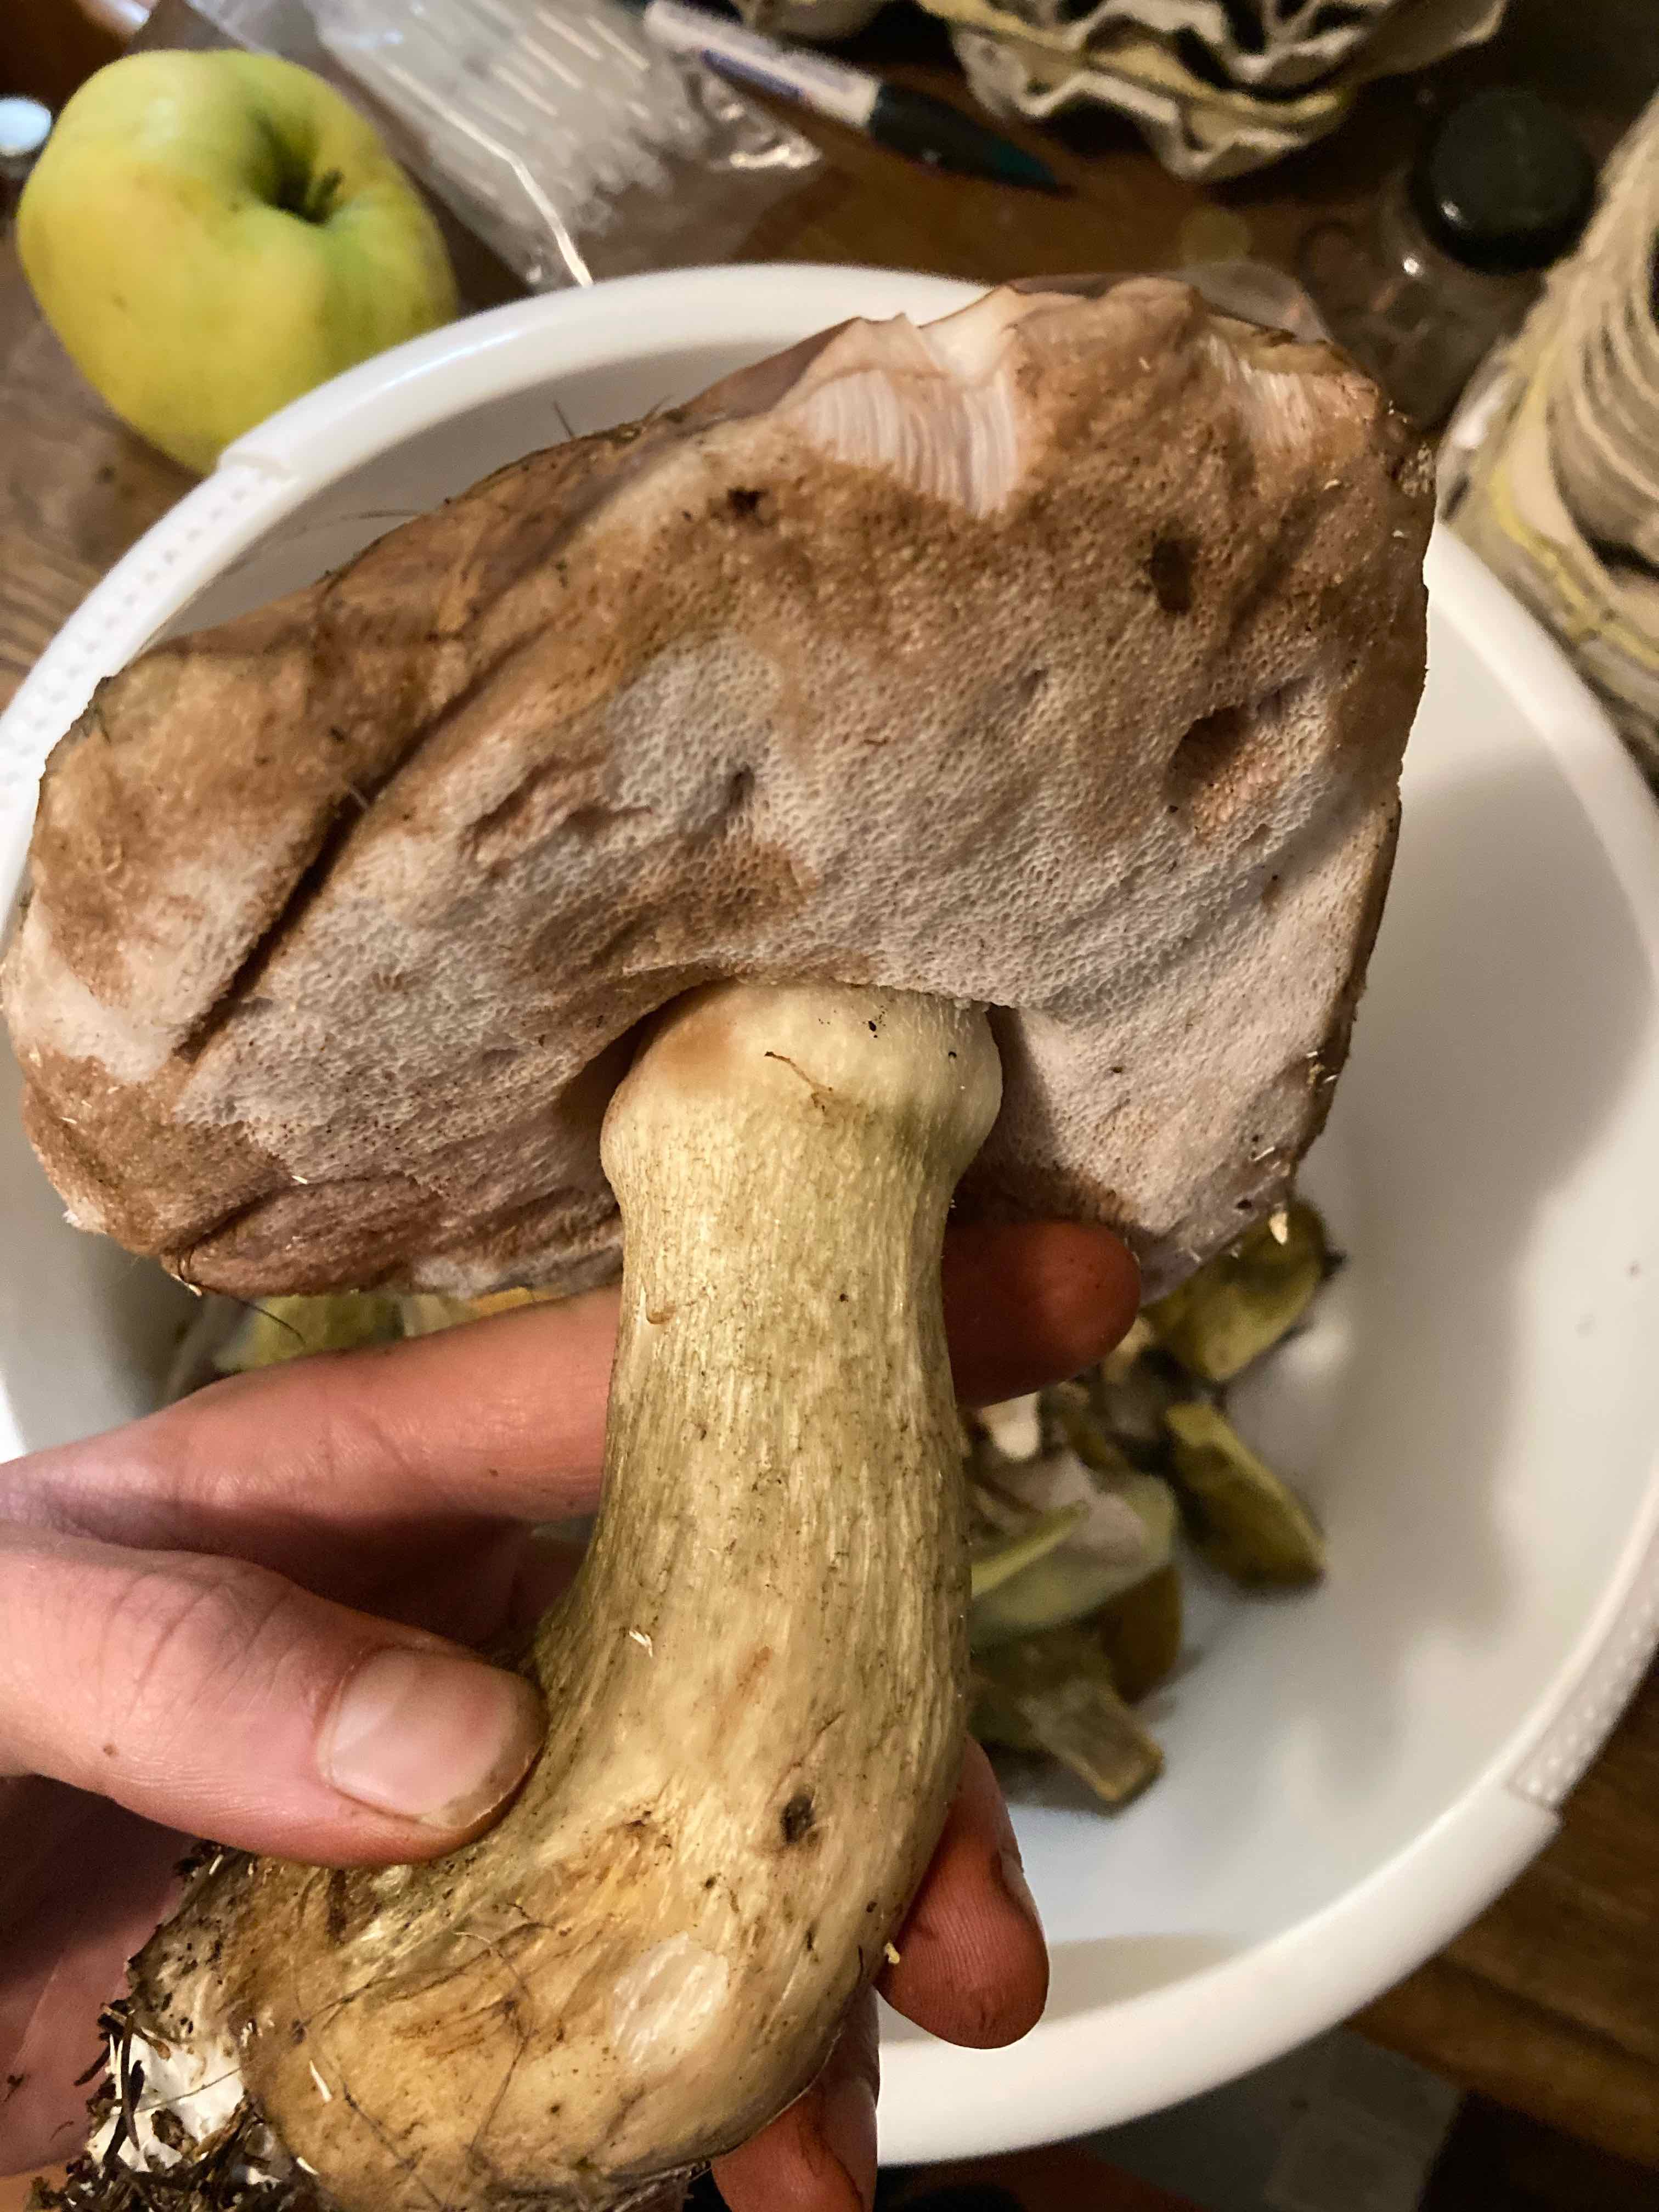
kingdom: Fungi
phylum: Basidiomycota
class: Agaricomycetes
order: Boletales
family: Boletaceae
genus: Tylopilus
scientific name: Tylopilus felleus
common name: galderørhat
